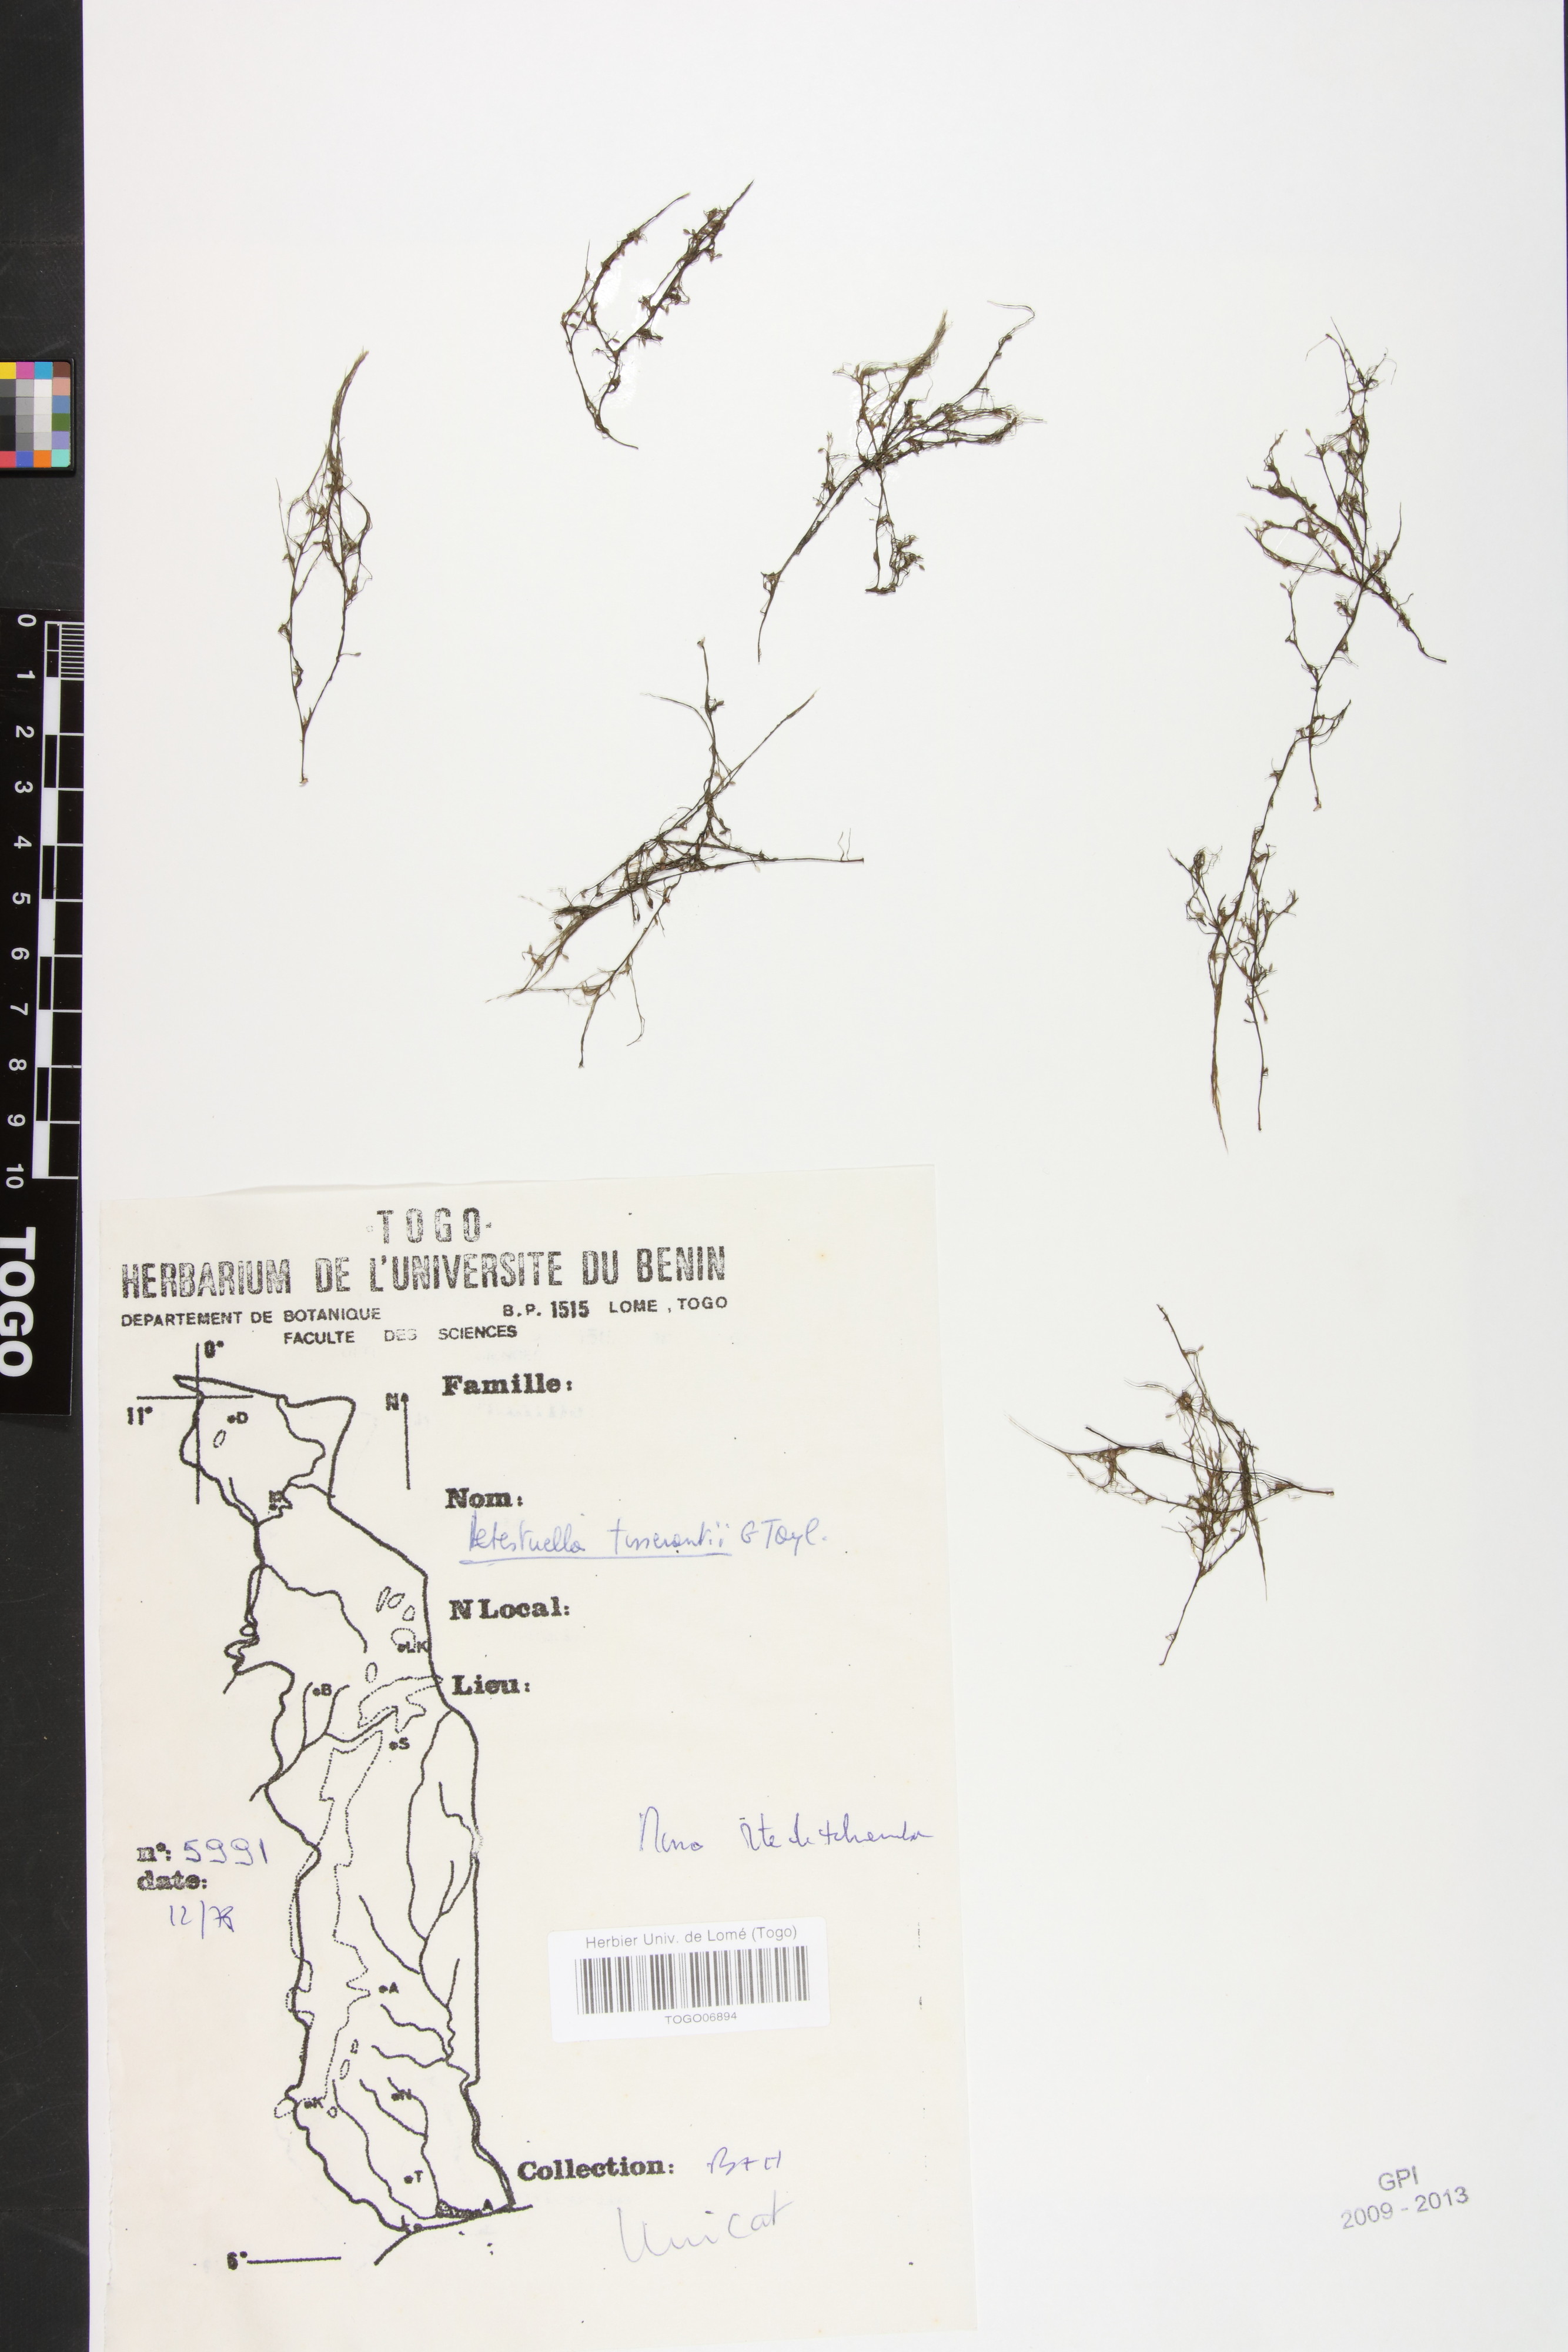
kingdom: Plantae
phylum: Tracheophyta
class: Magnoliopsida
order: Malpighiales
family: Podostemaceae
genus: Letestuella
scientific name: Letestuella tisserantii
